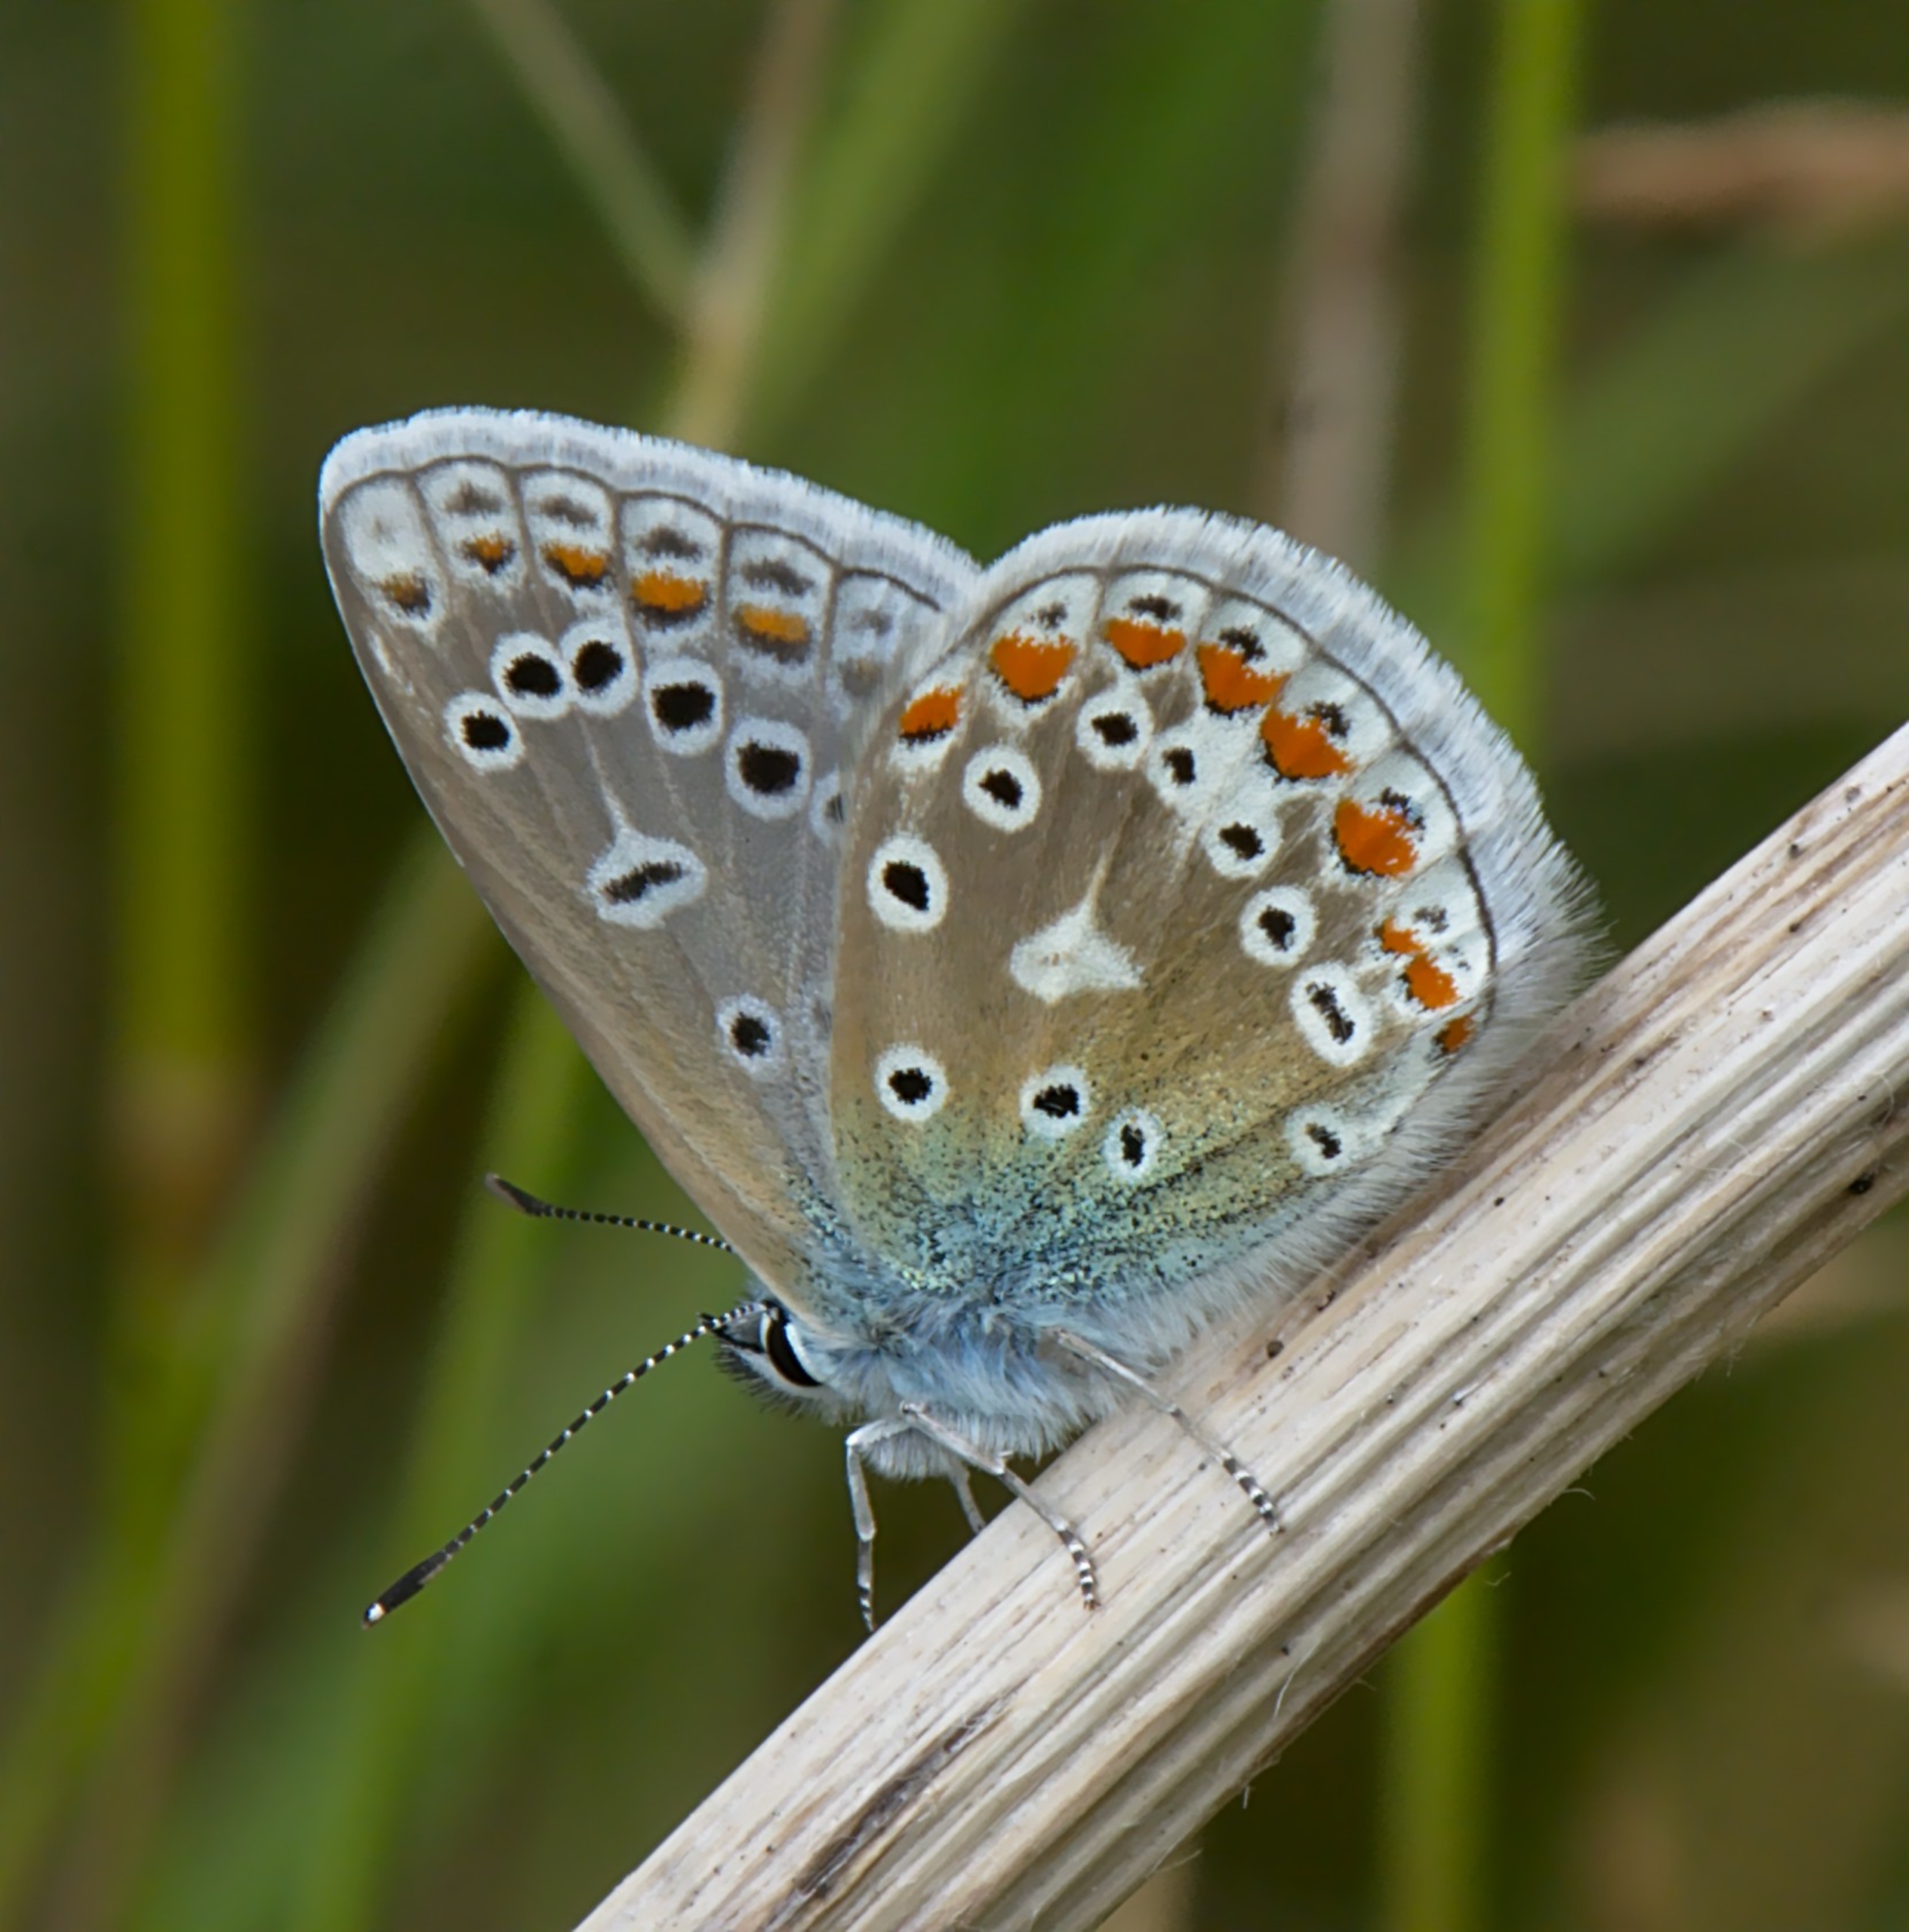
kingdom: Animalia
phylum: Arthropoda
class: Insecta
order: Lepidoptera
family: Lycaenidae
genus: Polyommatus
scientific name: Polyommatus icarus
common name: Almindelig blåfugl
